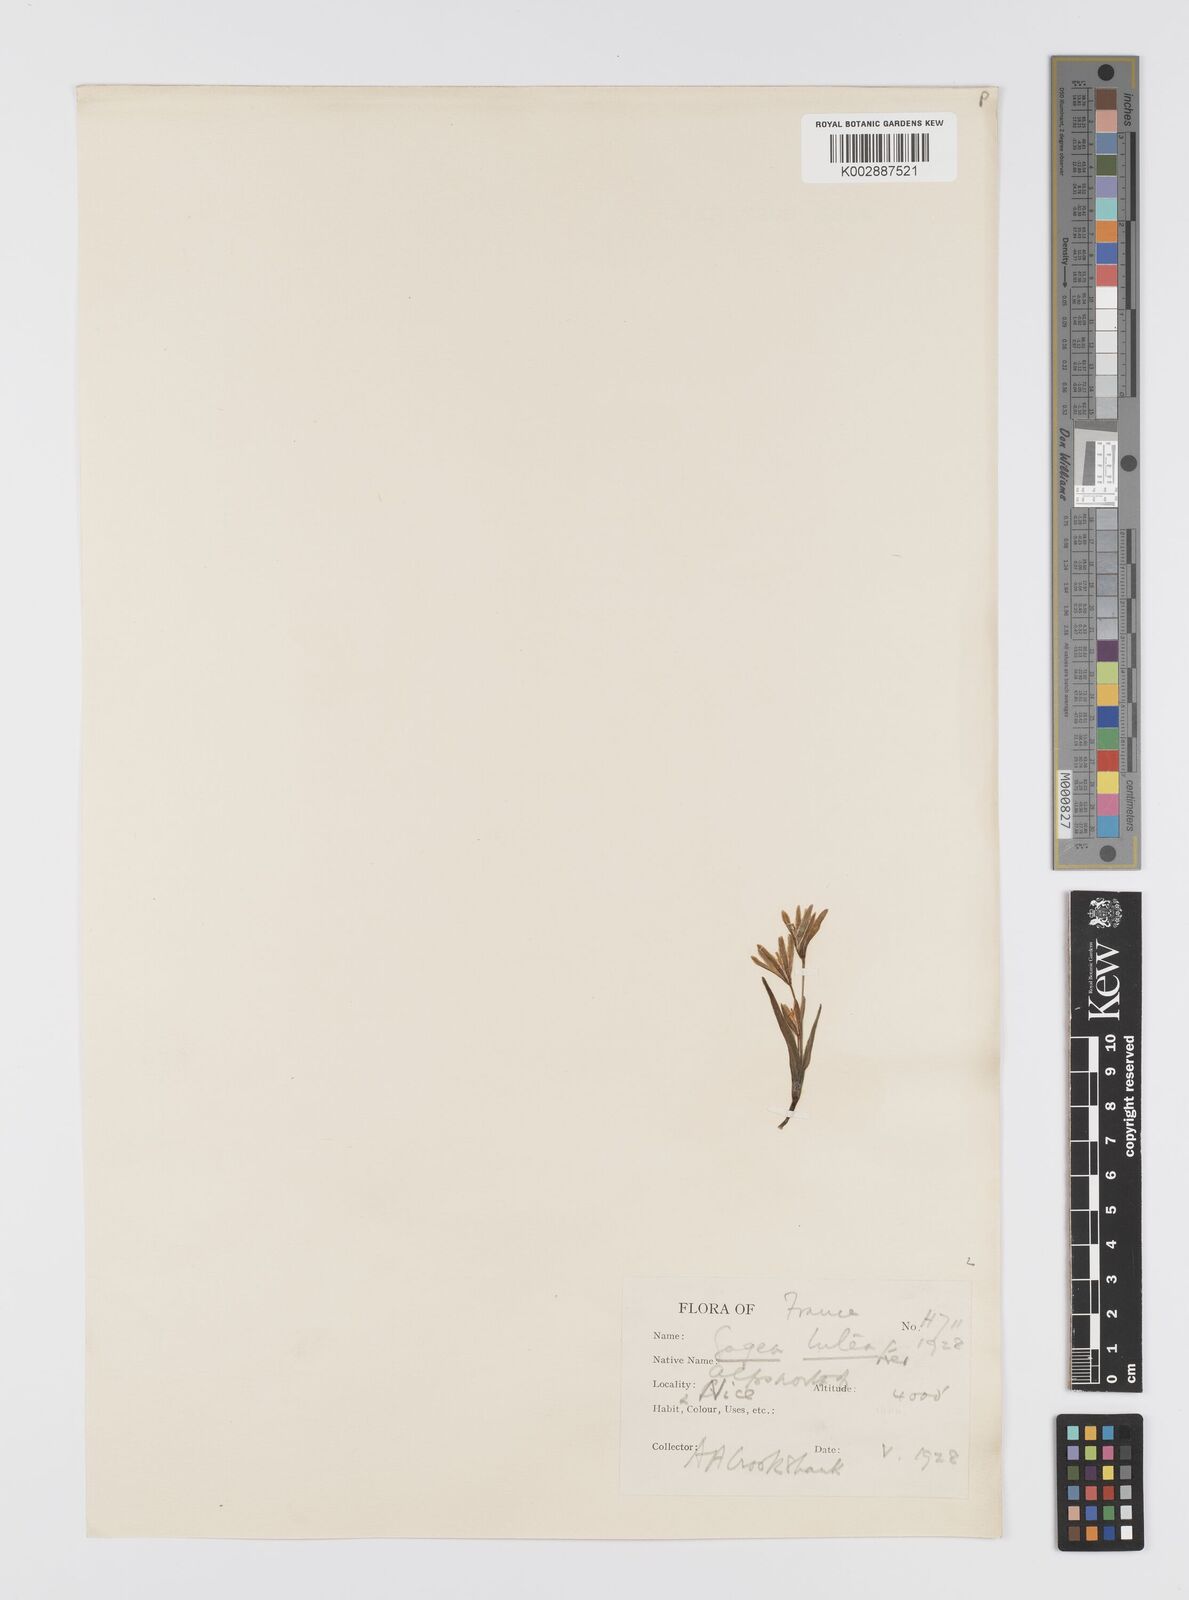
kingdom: Plantae
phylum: Tracheophyta
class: Liliopsida
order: Liliales
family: Liliaceae
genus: Gagea
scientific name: Gagea lutea
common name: Yellow star-of-bethlehem
